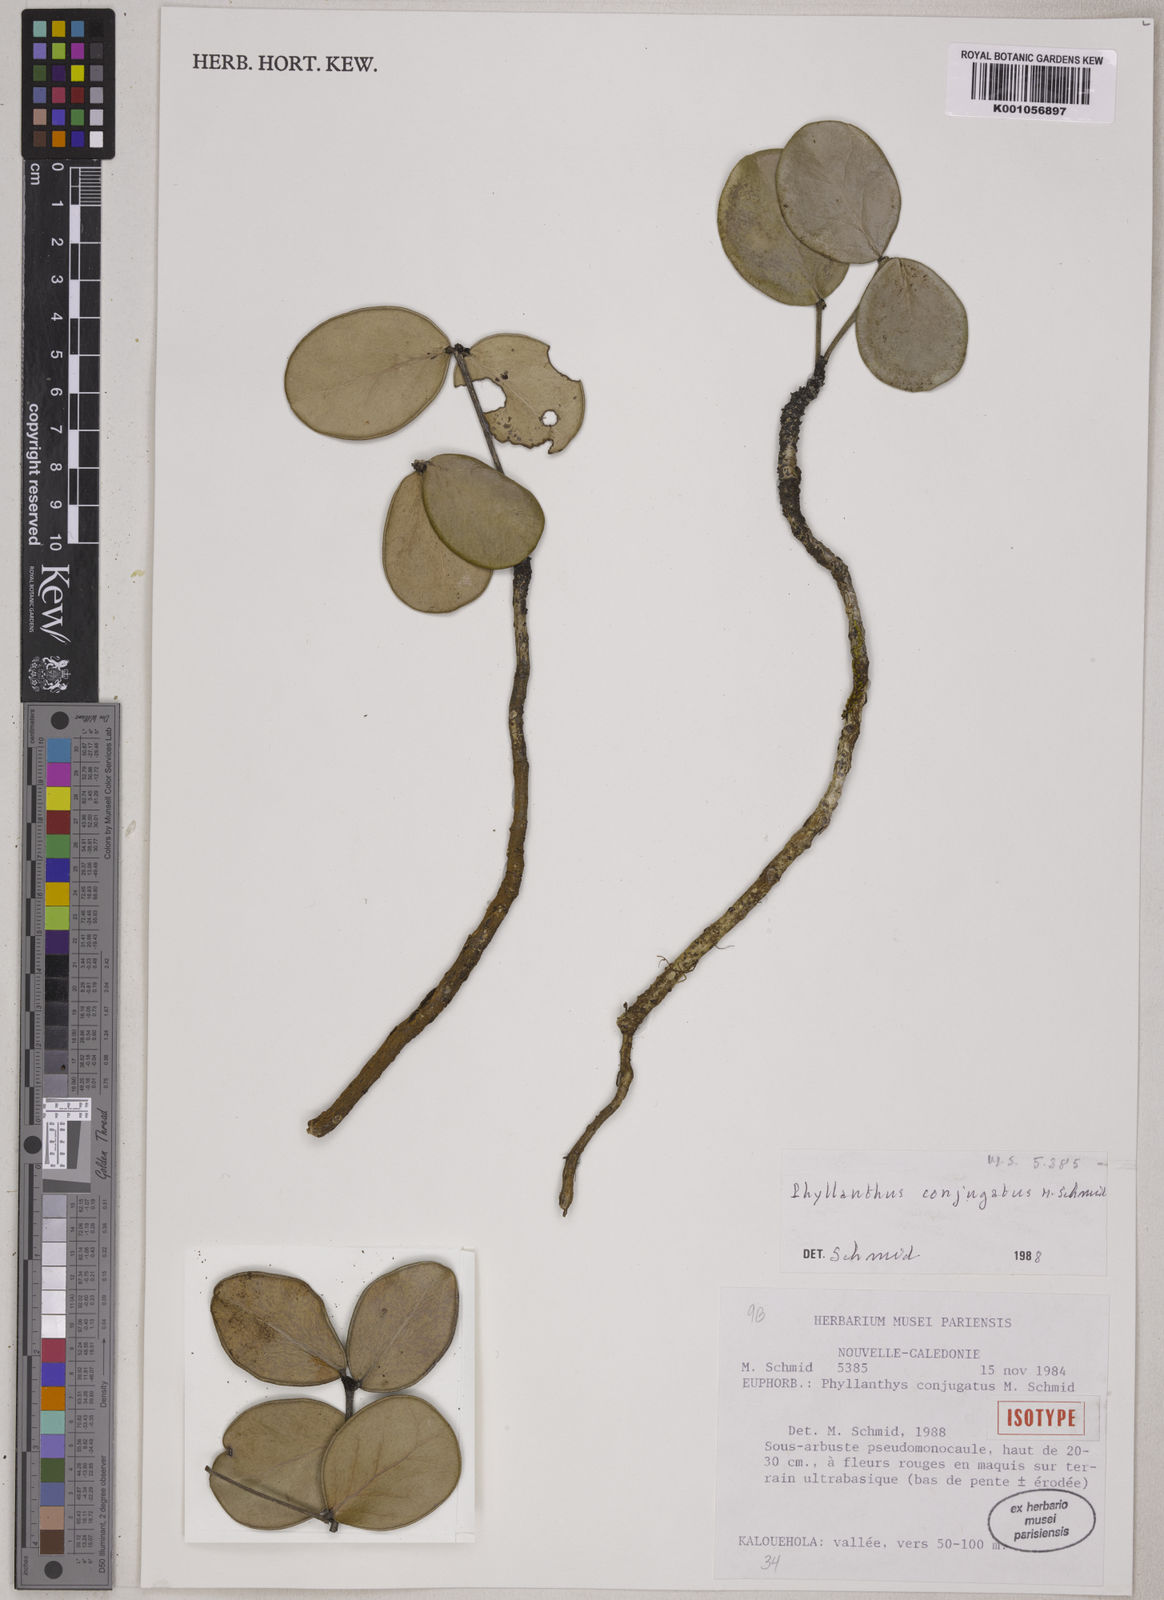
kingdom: Plantae
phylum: Tracheophyta
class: Magnoliopsida
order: Malpighiales
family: Phyllanthaceae
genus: Phyllanthus
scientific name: Phyllanthus conjugatus
